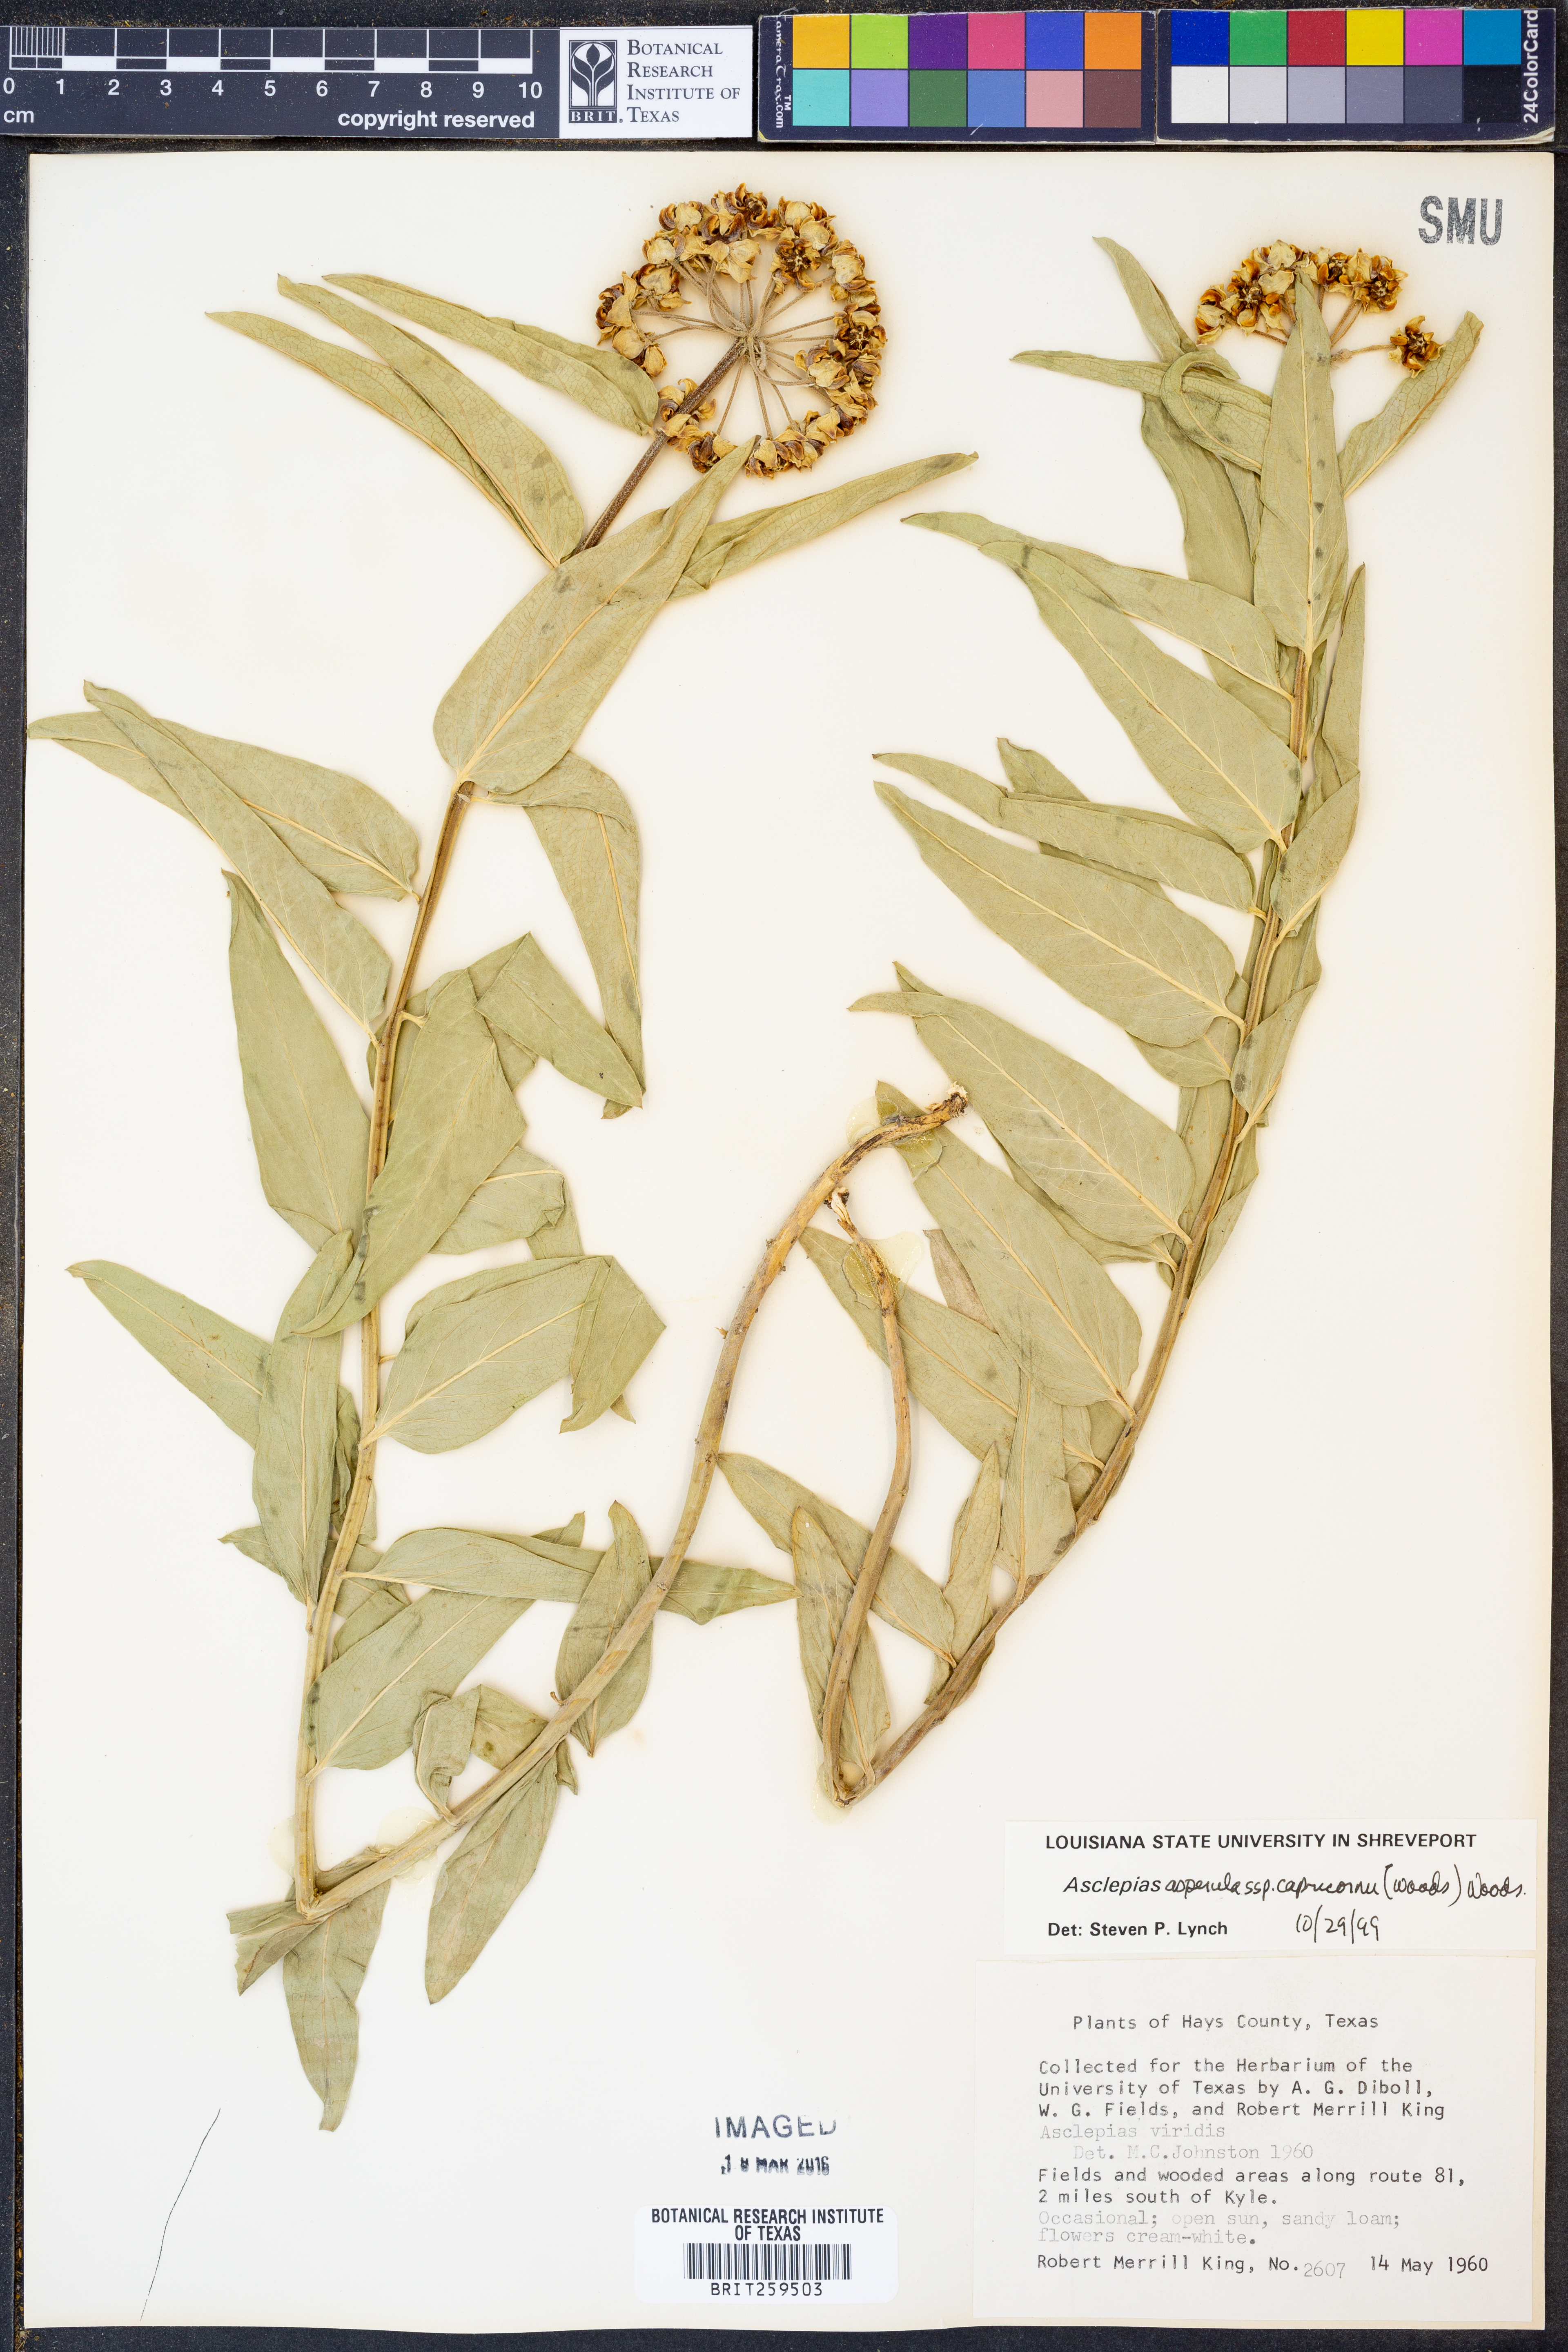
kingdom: Plantae
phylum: Tracheophyta
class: Magnoliopsida
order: Gentianales
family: Apocynaceae
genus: Asclepias
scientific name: Asclepias asperula
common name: Antelope horns
